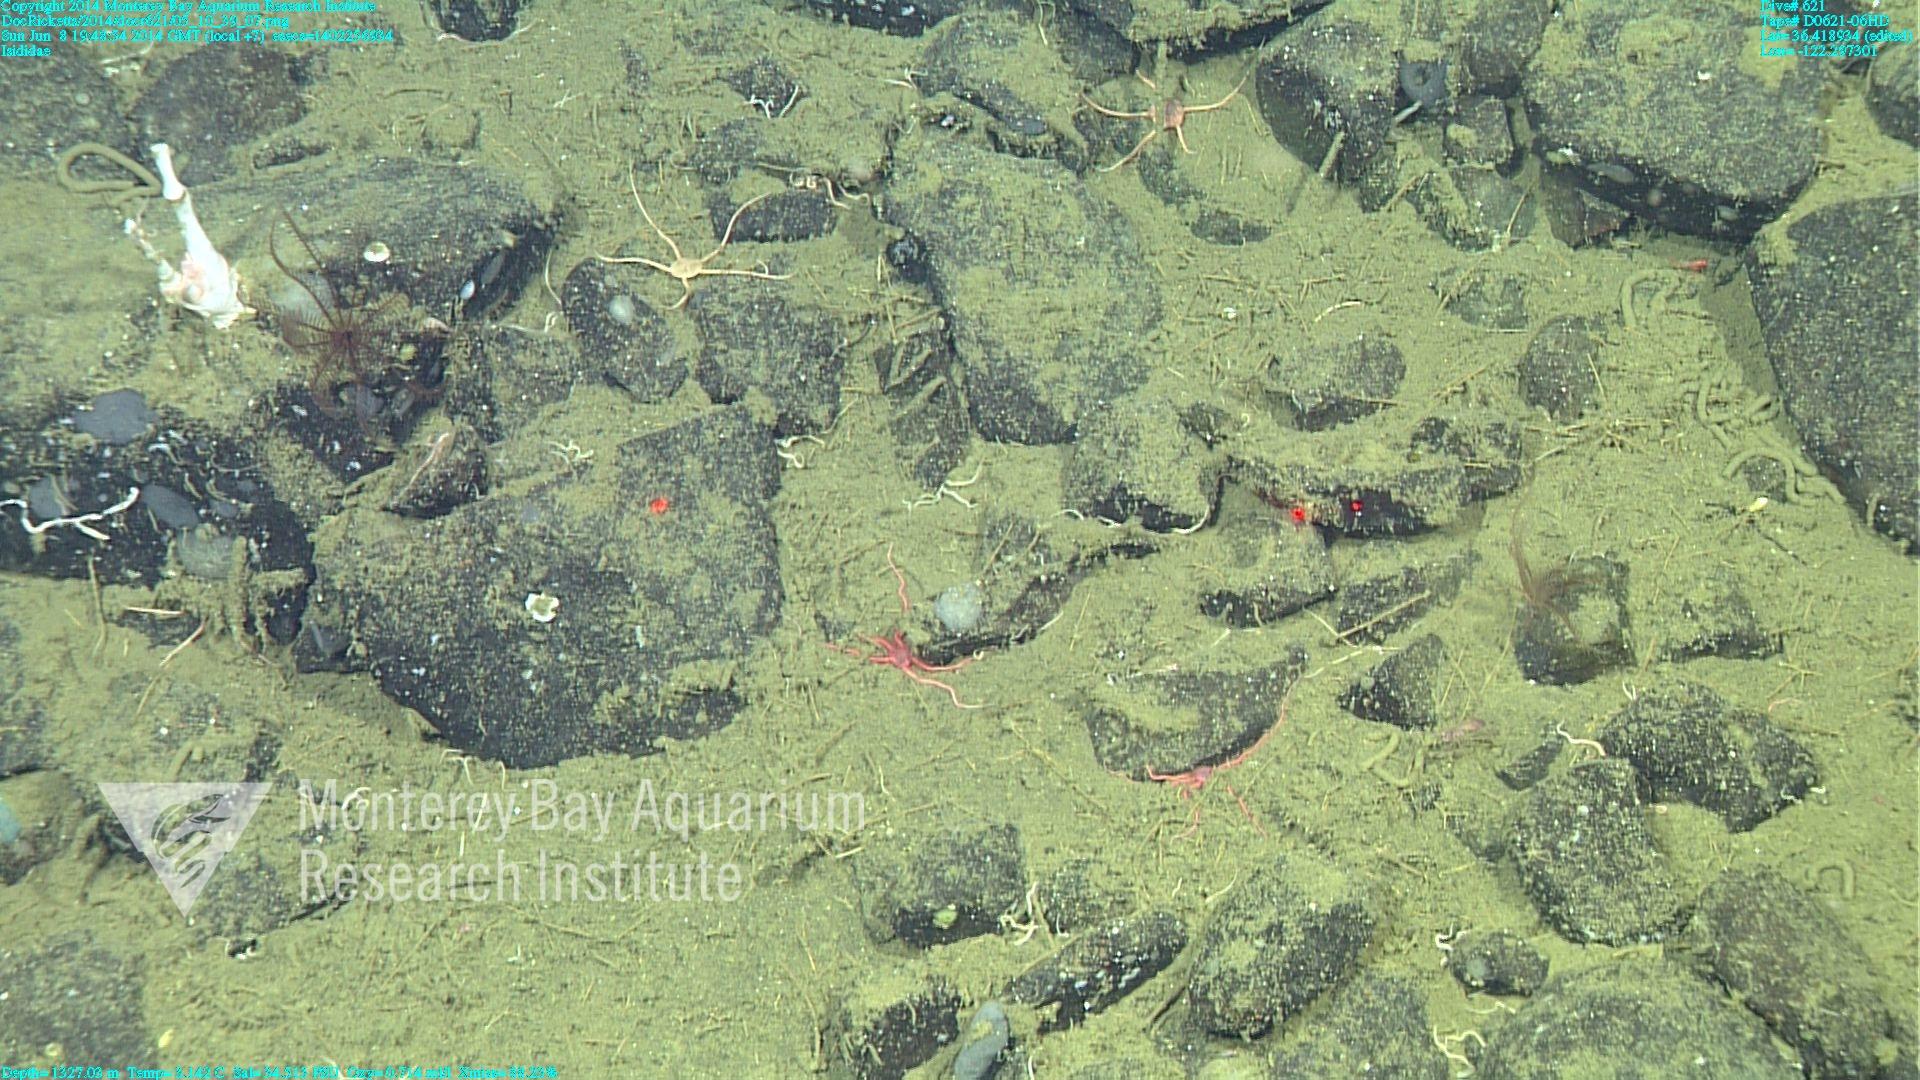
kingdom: Animalia
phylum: Cnidaria
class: Anthozoa
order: Scleralcyonacea
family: Keratoisididae
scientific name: Keratoisididae
